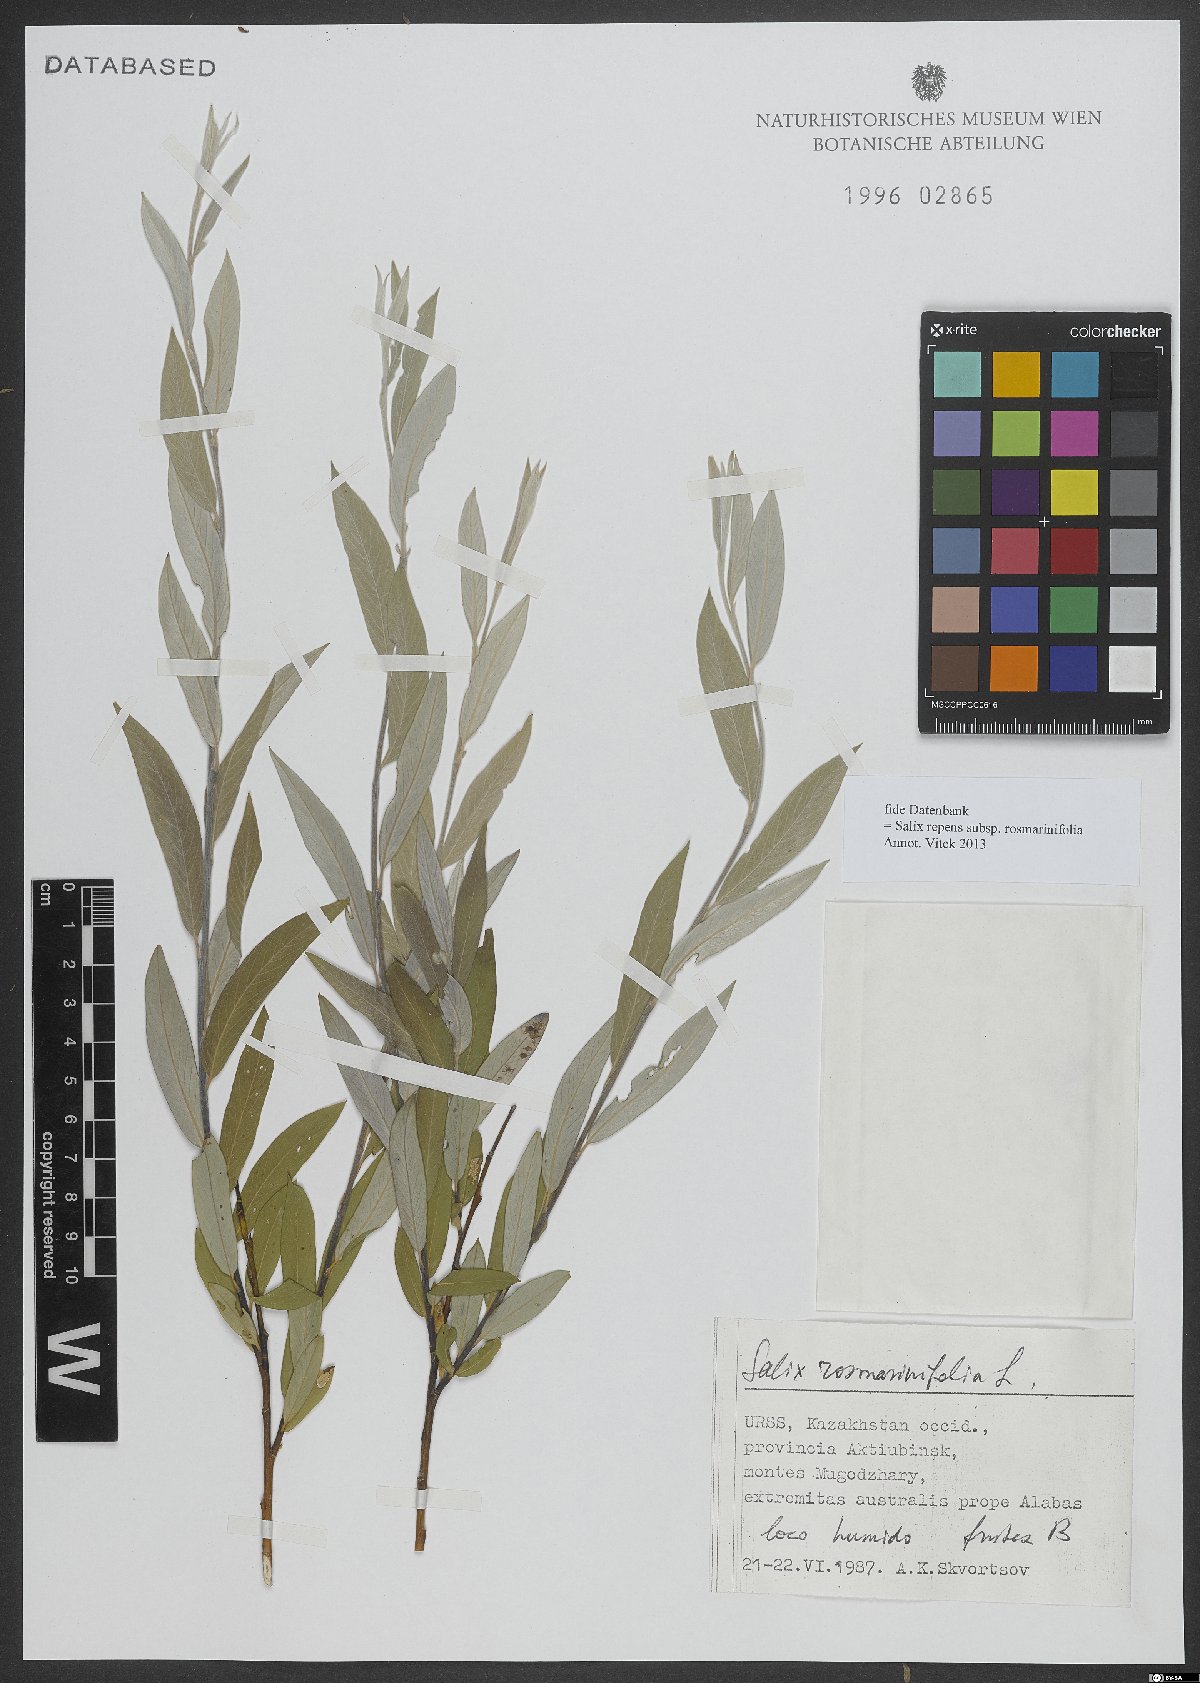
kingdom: Plantae
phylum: Tracheophyta
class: Magnoliopsida
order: Malpighiales
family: Salicaceae
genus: Salix
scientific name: Salix repens
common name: Creeping willow
